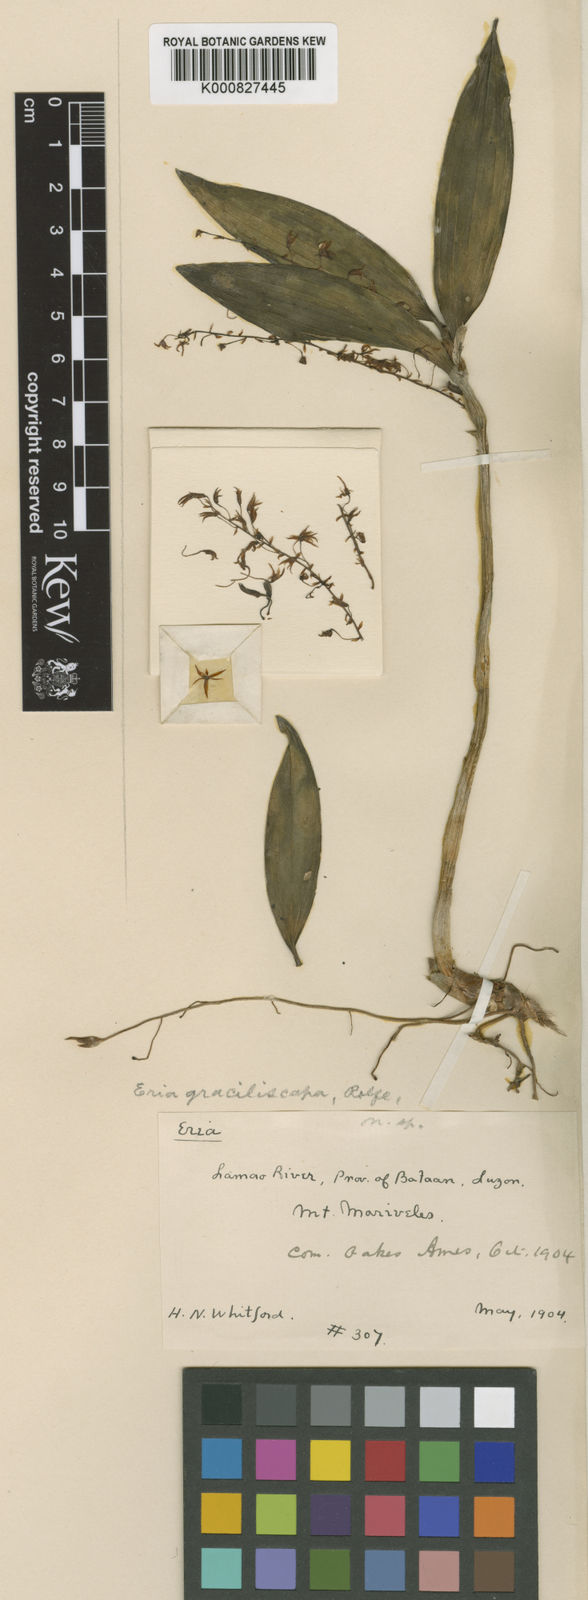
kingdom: Plantae
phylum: Tracheophyta
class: Liliopsida
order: Asparagales
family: Orchidaceae
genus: Pinalia
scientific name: Pinalia graciliscapa
